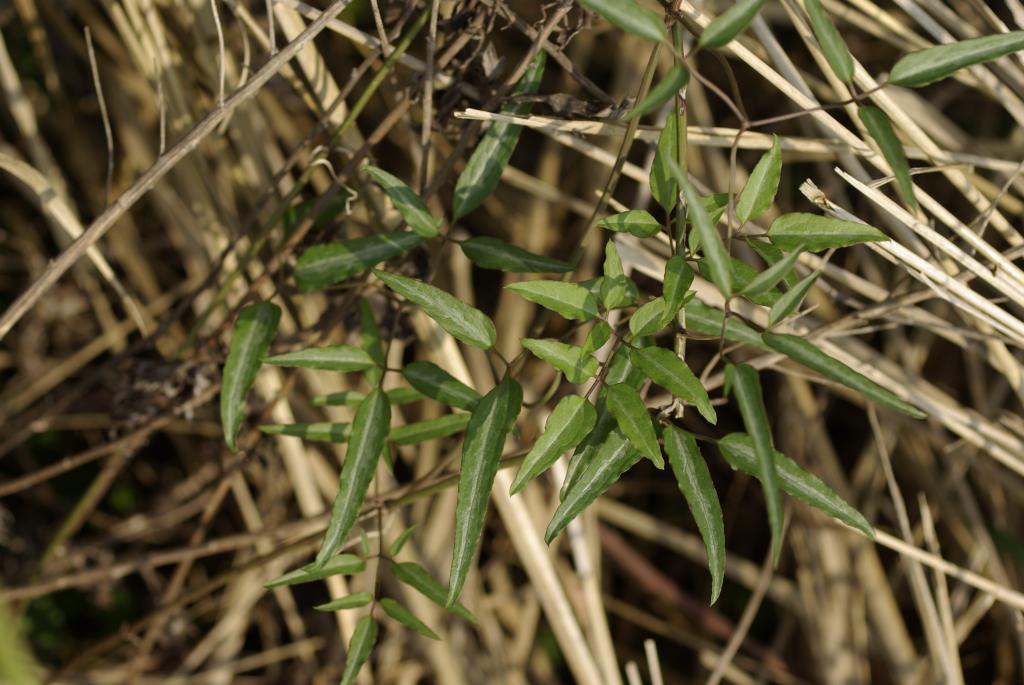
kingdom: Plantae
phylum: Tracheophyta
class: Magnoliopsida
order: Ranunculales
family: Ranunculaceae
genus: Clematis
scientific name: Clematis chinensis
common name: Chinese clematis
